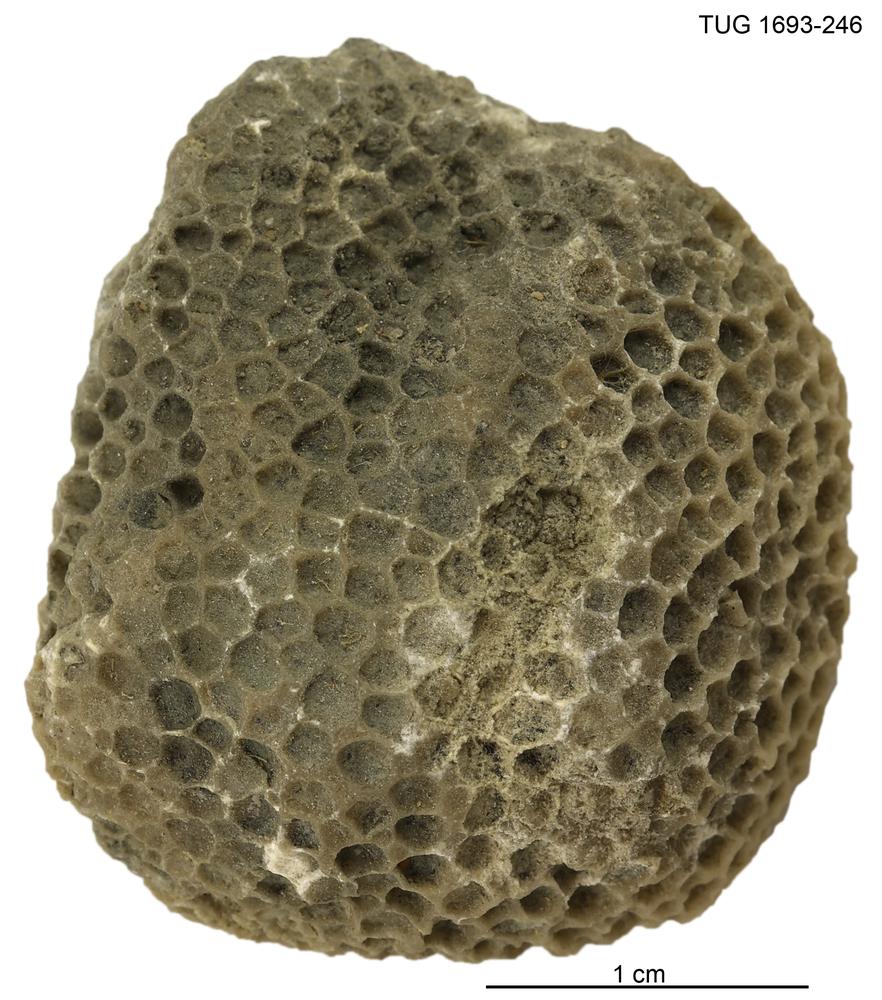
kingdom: Animalia
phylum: Cnidaria
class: Anthozoa
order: Heliolitina
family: Heliolitidae
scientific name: Heliolitidae
